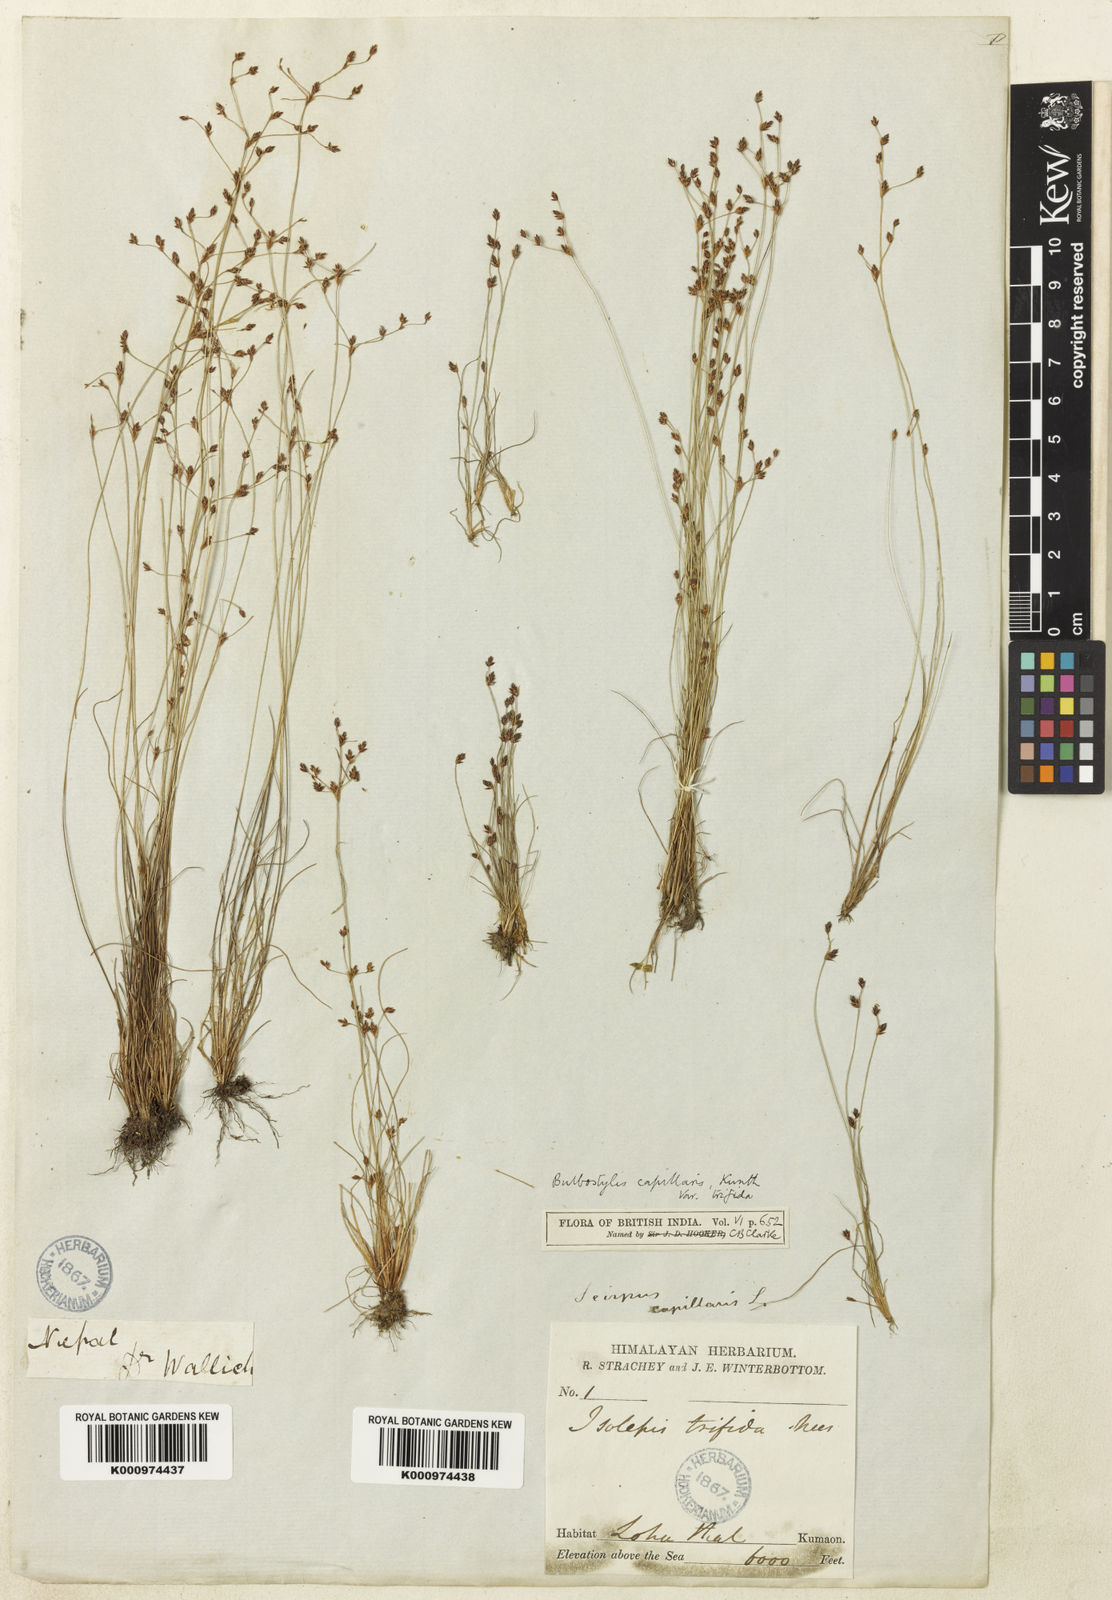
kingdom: Plantae
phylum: Tracheophyta
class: Liliopsida
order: Poales
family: Cyperaceae
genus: Bulbostylis
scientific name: Bulbostylis capillaris
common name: Densetuft hairsedge
